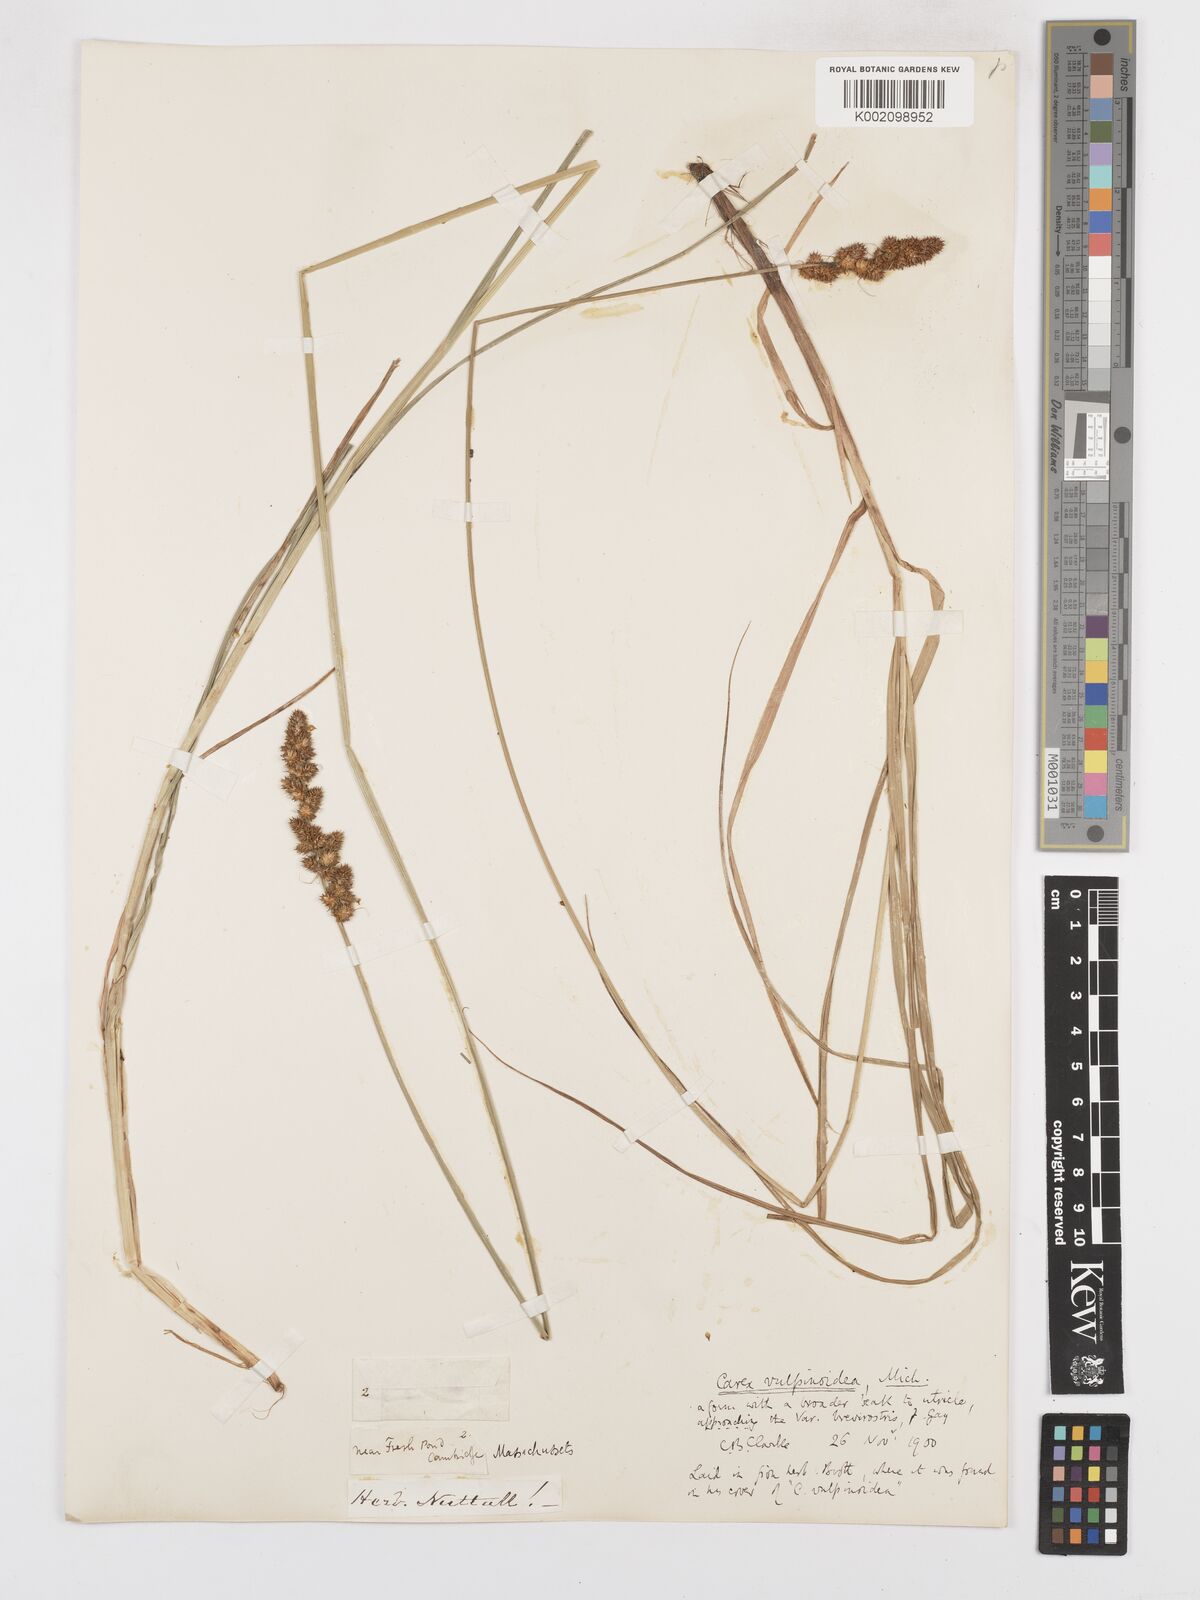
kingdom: Plantae
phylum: Tracheophyta
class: Liliopsida
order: Poales
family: Cyperaceae
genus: Carex
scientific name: Carex vulpinoidea
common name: American fox-sedge
